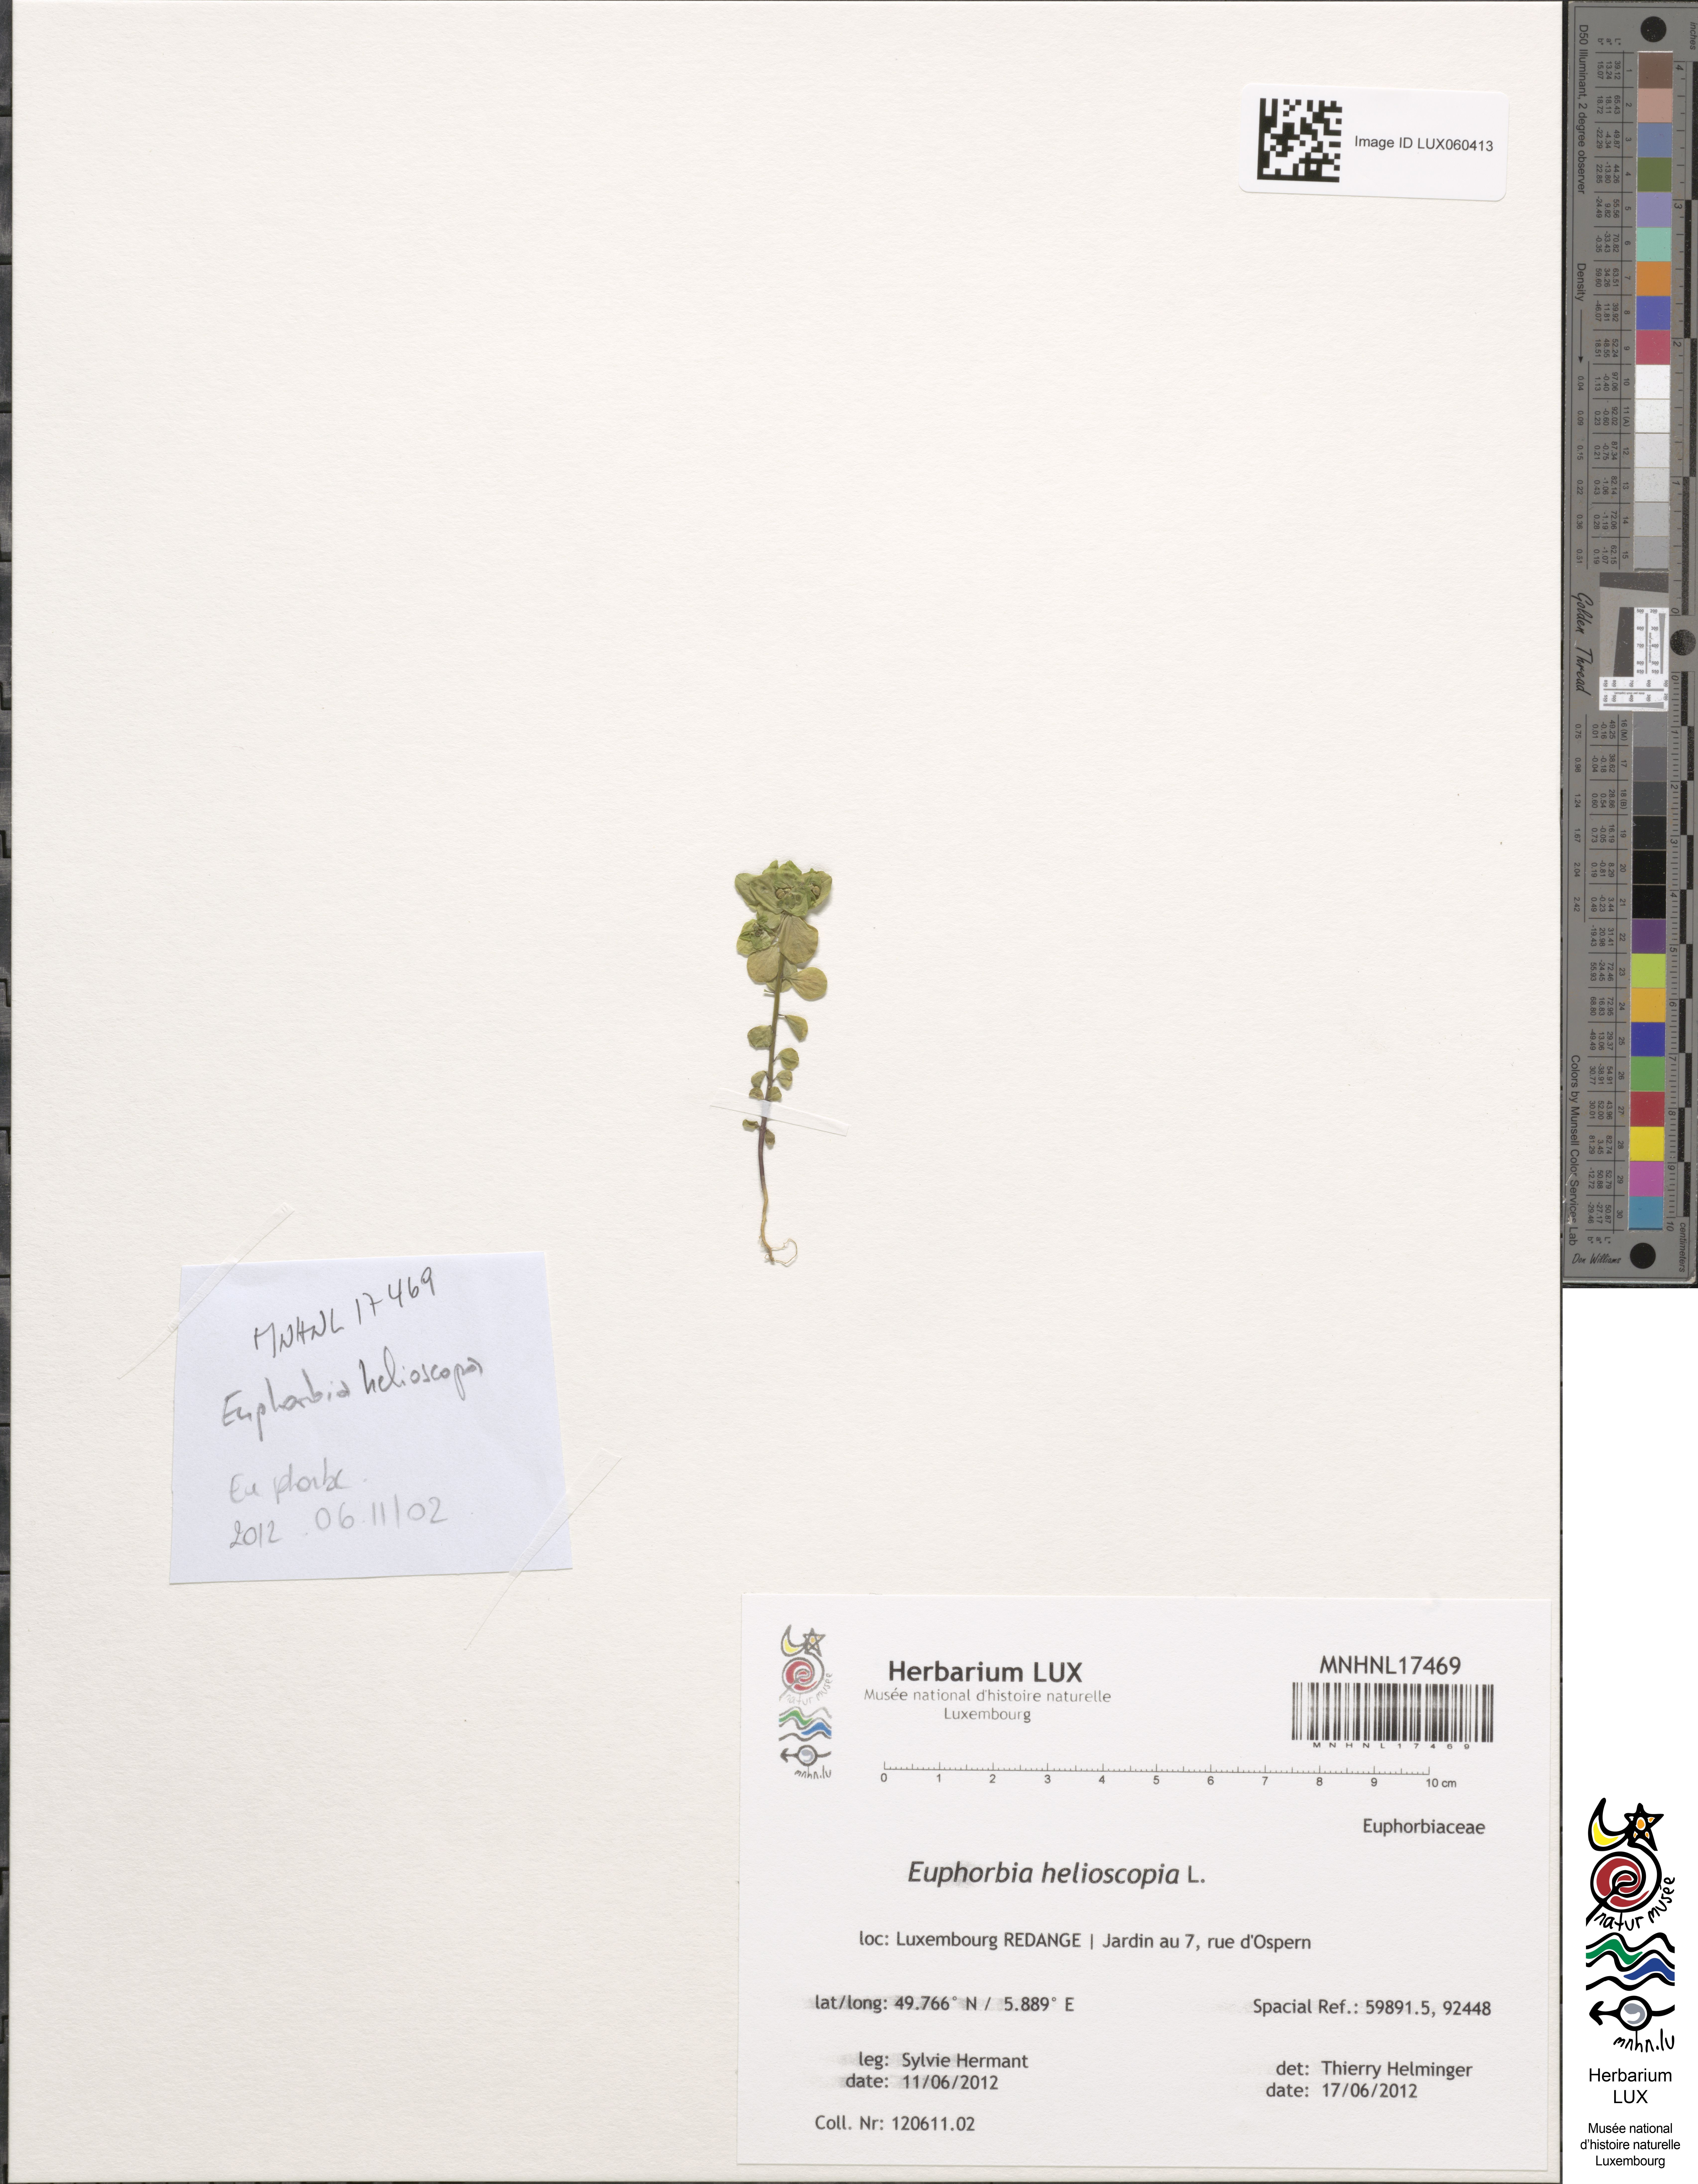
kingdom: Plantae
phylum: Tracheophyta
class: Magnoliopsida
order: Malpighiales
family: Euphorbiaceae
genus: Euphorbia
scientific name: Euphorbia helioscopia
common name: Sun spurge
